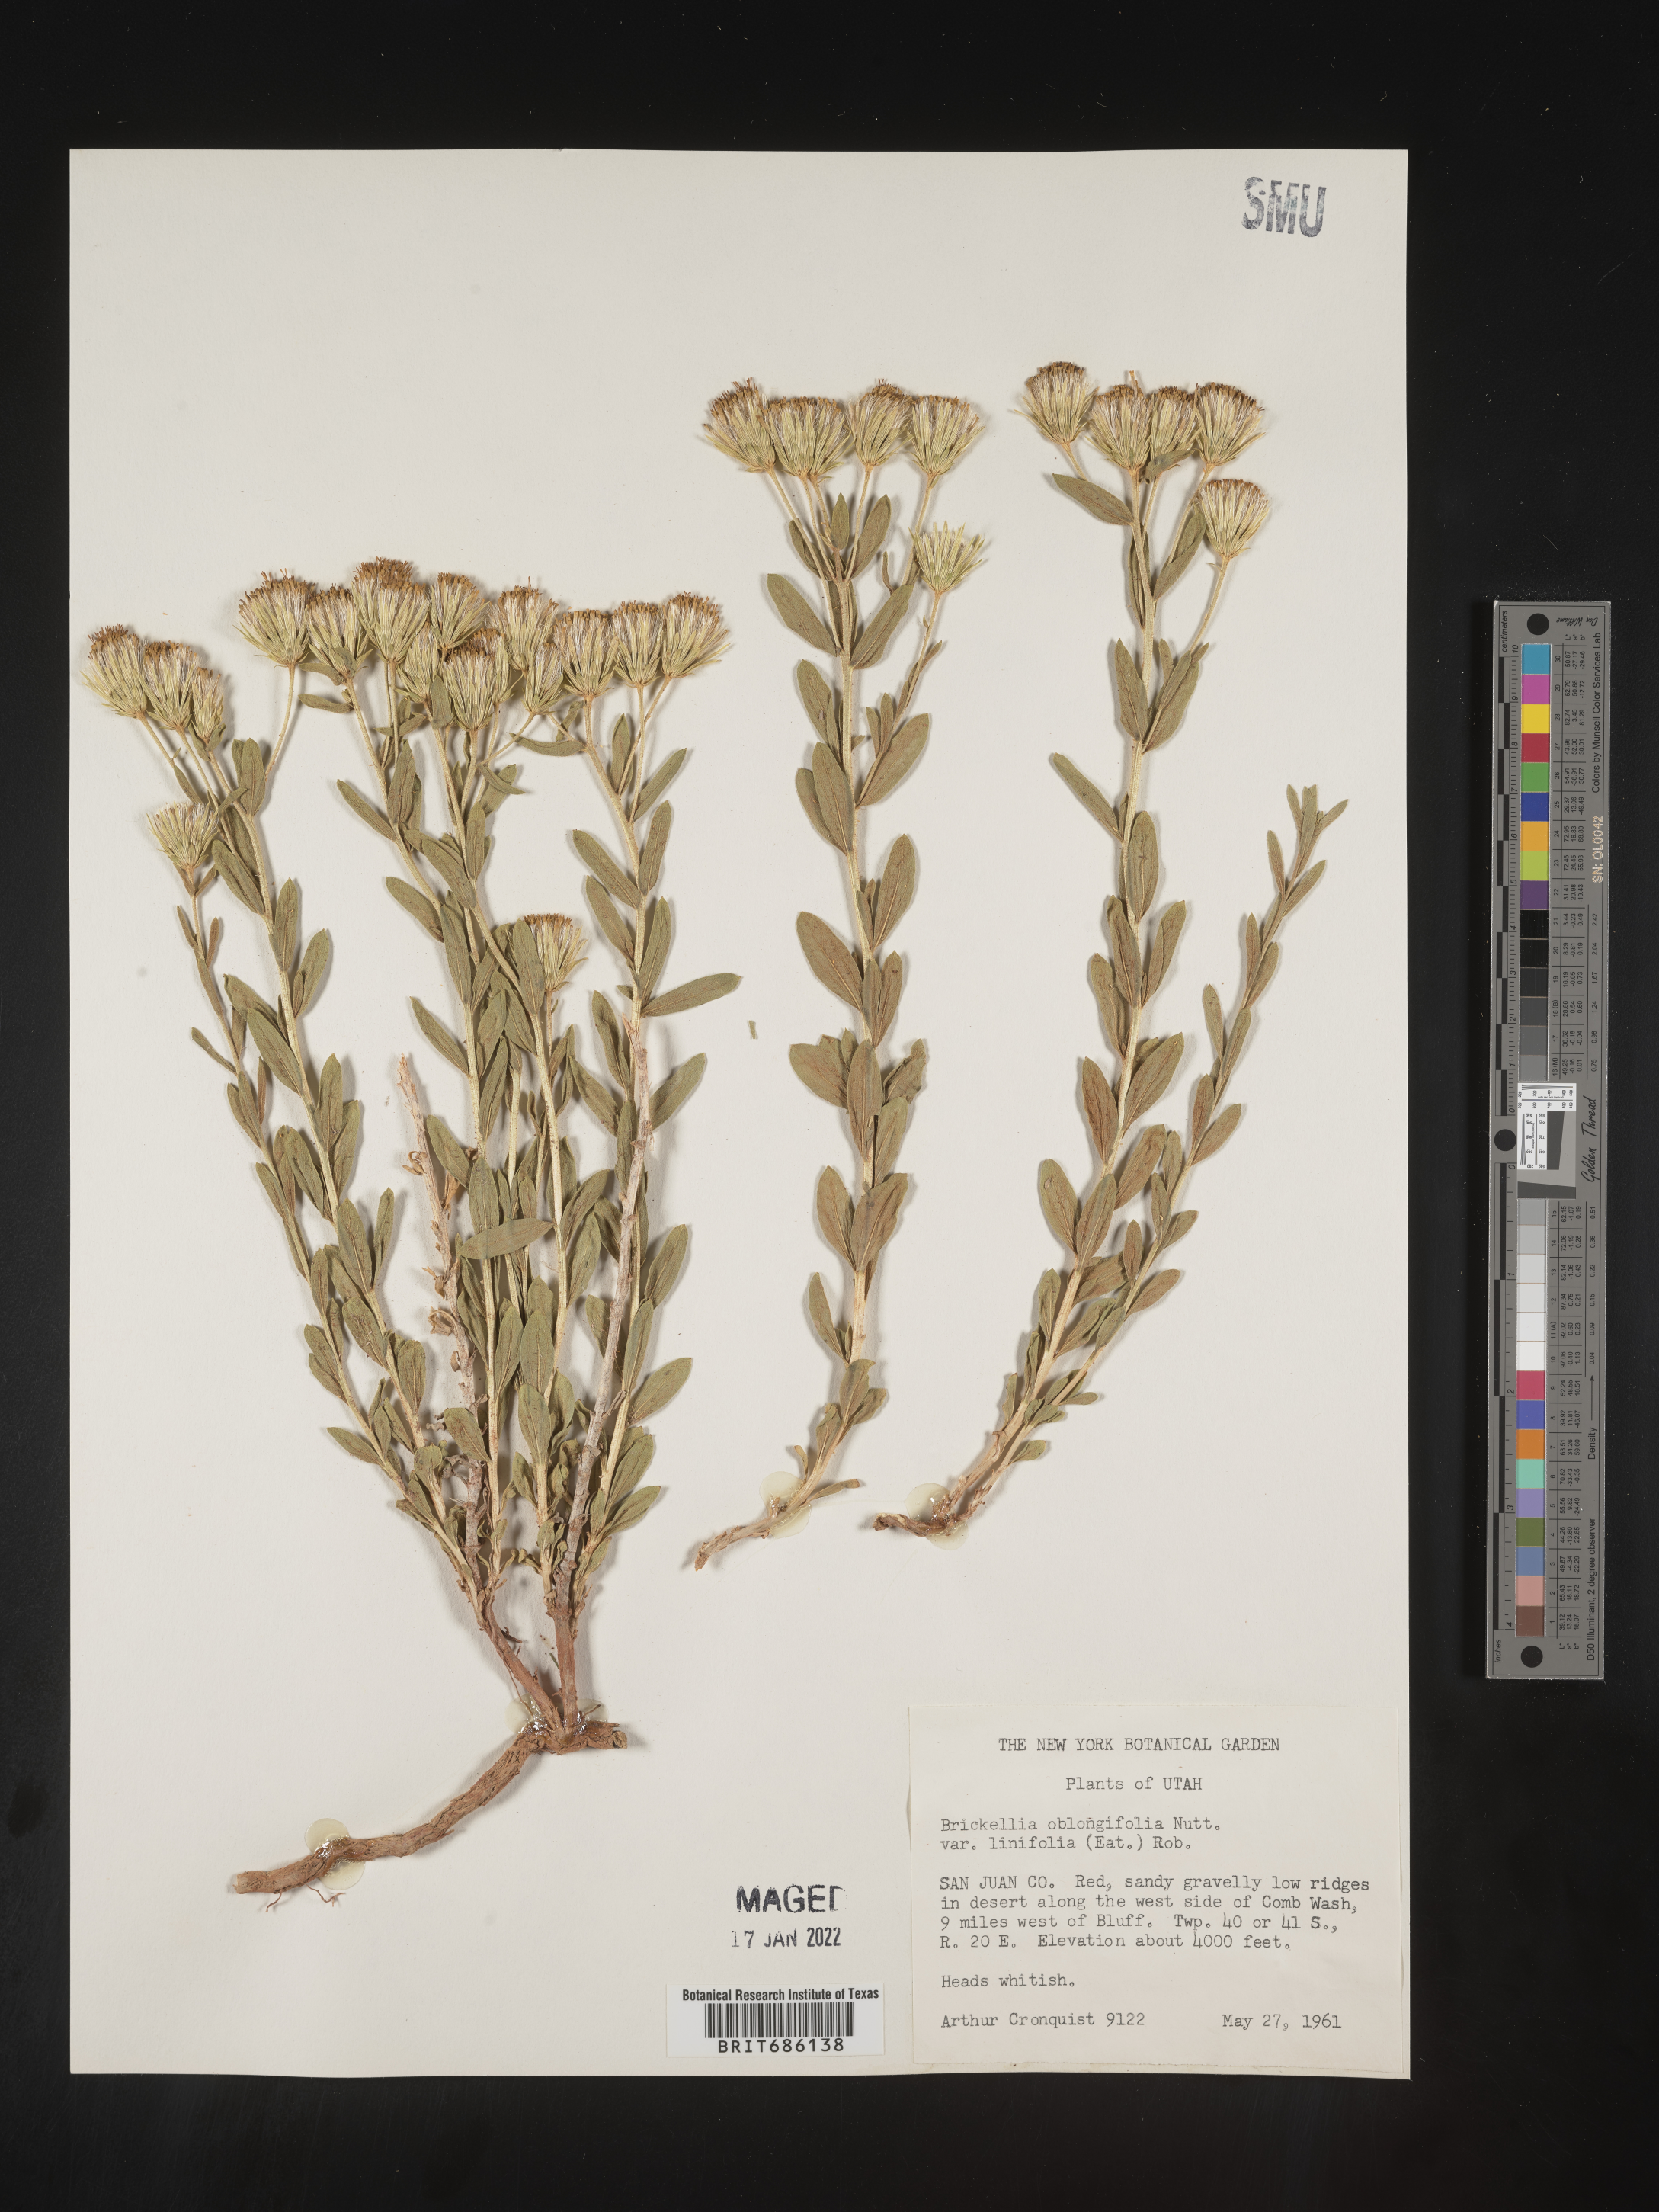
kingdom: Plantae
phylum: Tracheophyta
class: Magnoliopsida
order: Asterales
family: Asteraceae
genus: Brickellia
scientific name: Brickellia oblongifolia
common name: Mojave brickellbush
